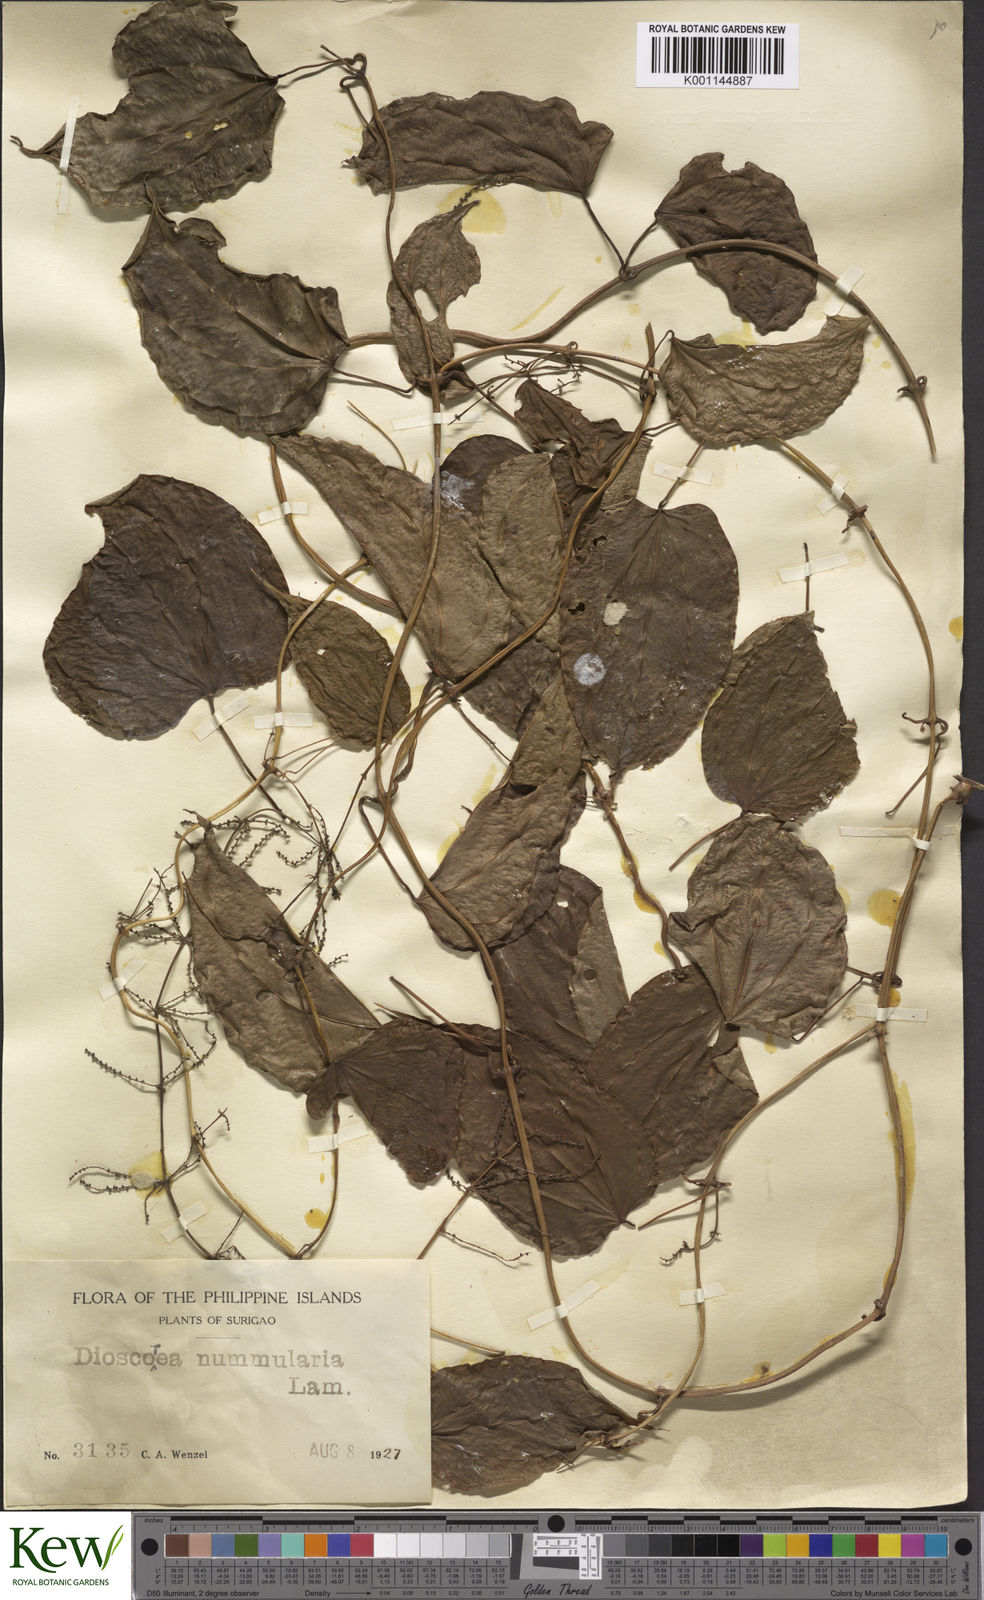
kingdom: Plantae
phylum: Tracheophyta
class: Liliopsida
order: Dioscoreales
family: Dioscoreaceae
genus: Dioscorea
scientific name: Dioscorea nummularia
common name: Pacific yam
